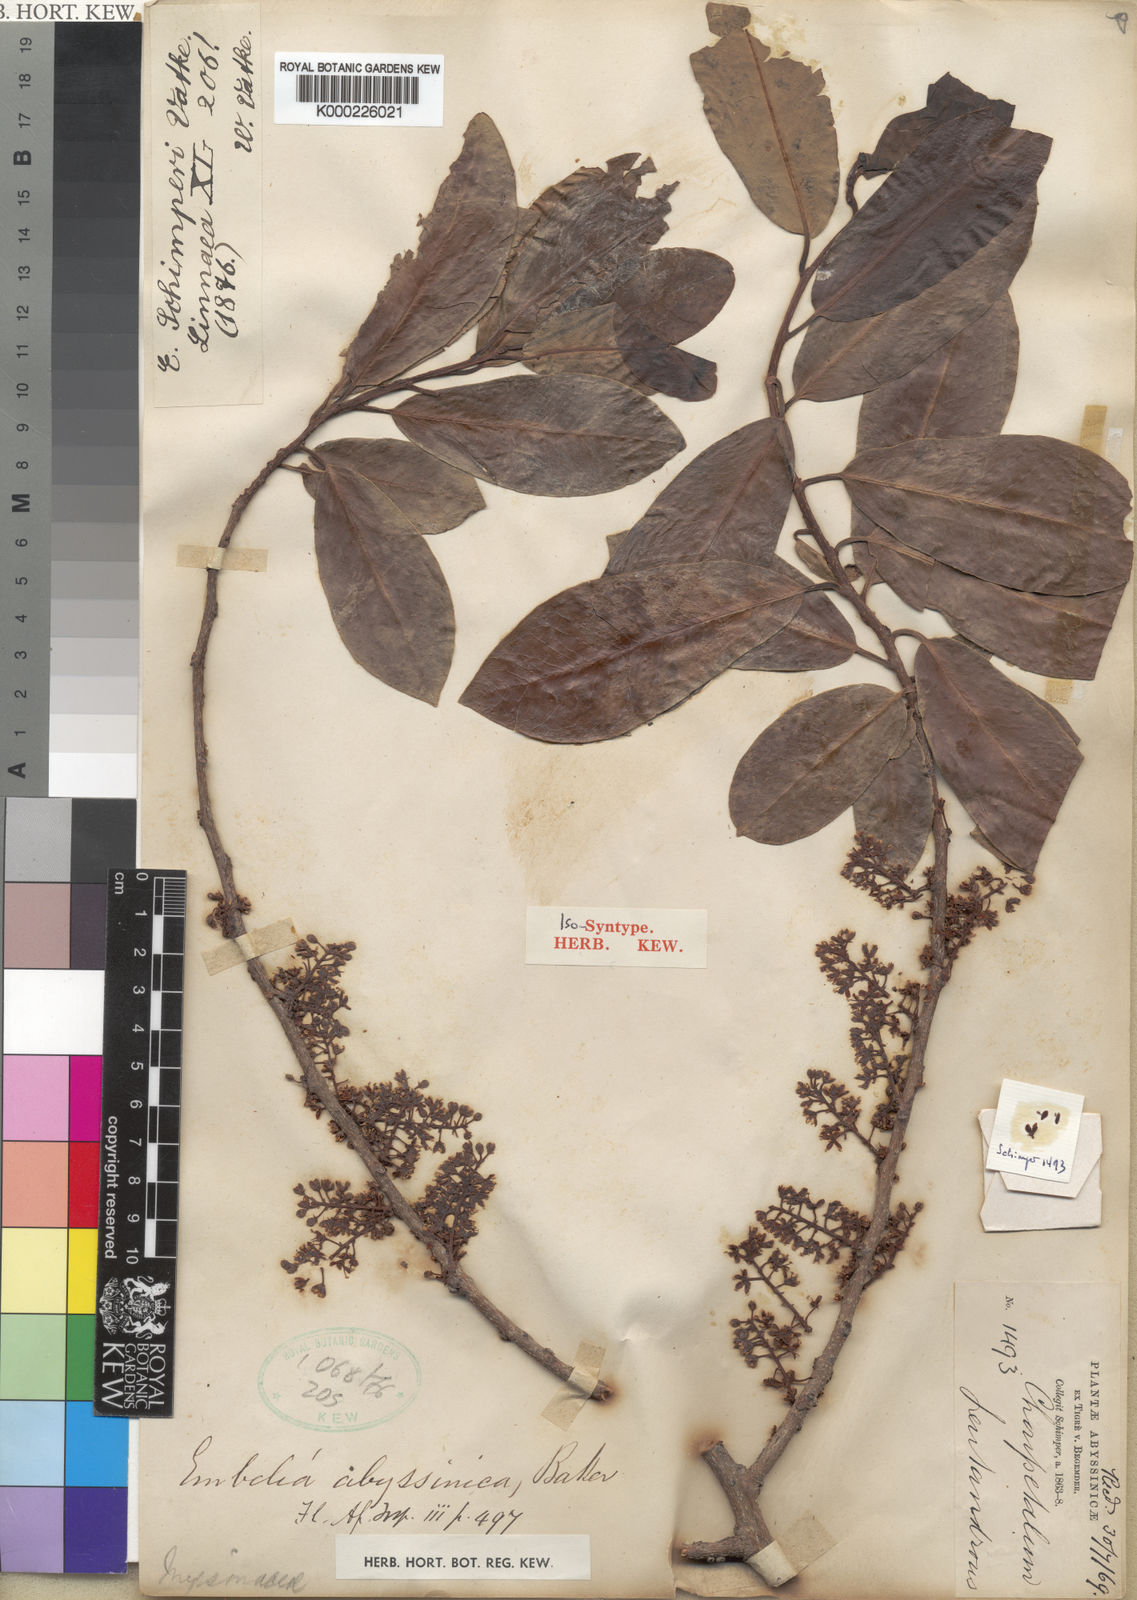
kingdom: Plantae
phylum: Tracheophyta
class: Magnoliopsida
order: Ericales
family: Primulaceae
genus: Embelia
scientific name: Embelia schimperi
